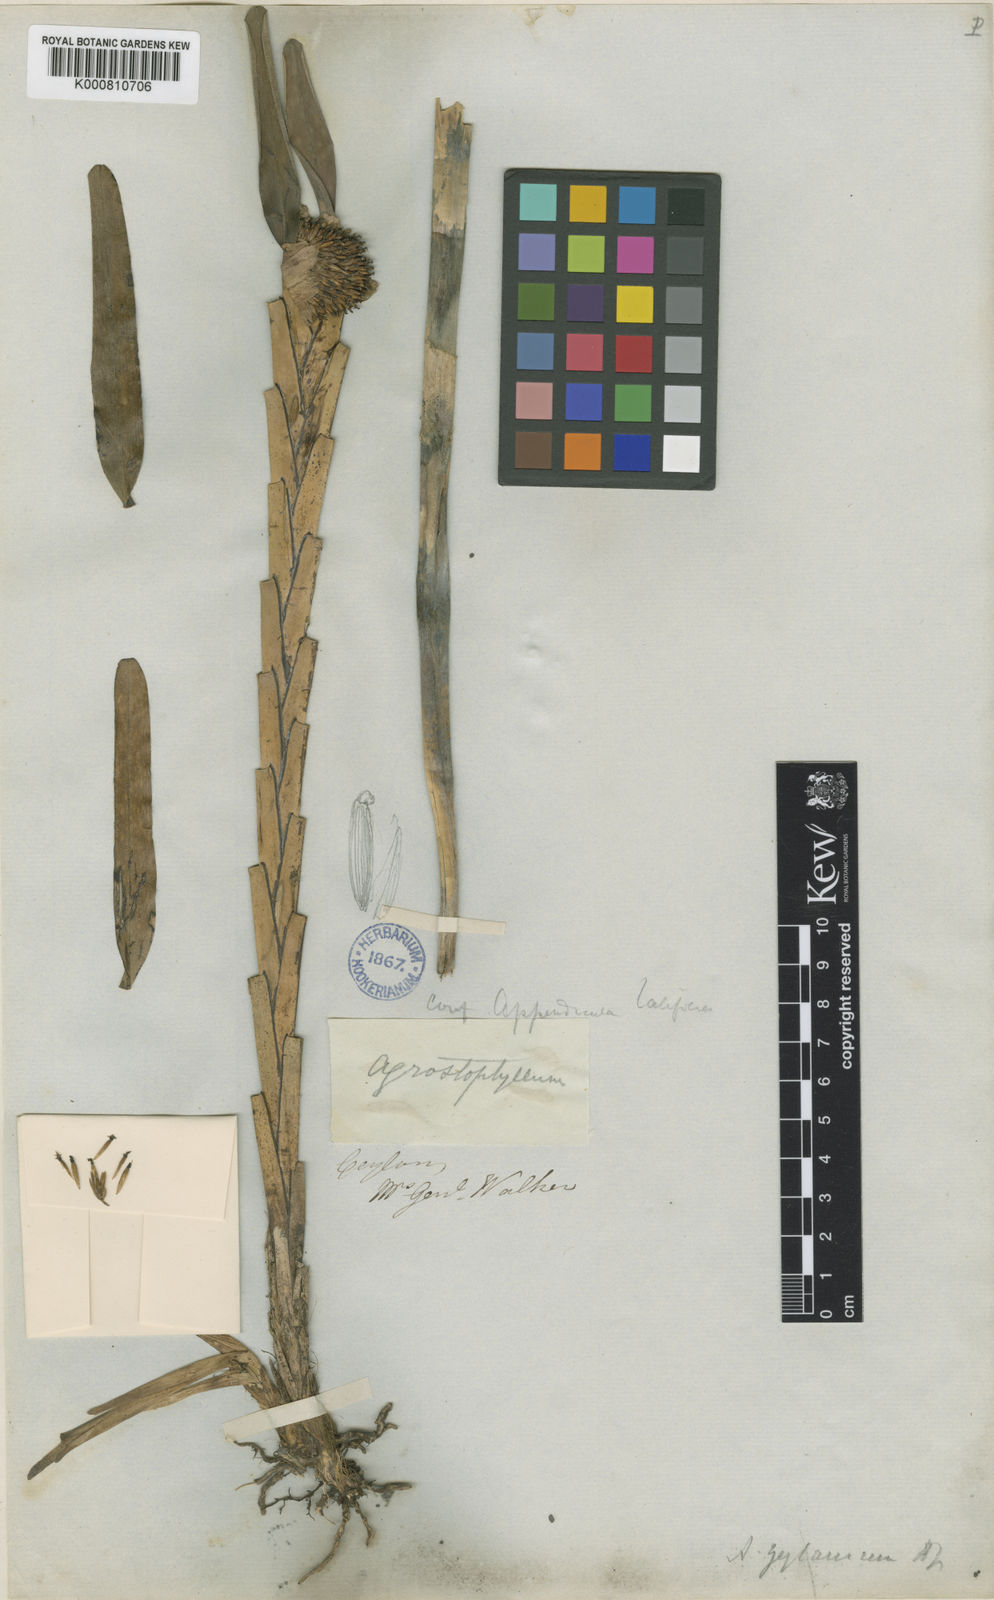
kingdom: Plantae
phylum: Tracheophyta
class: Liliopsida
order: Asparagales
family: Orchidaceae
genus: Agrostophyllum
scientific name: Agrostophyllum zeylanicum
